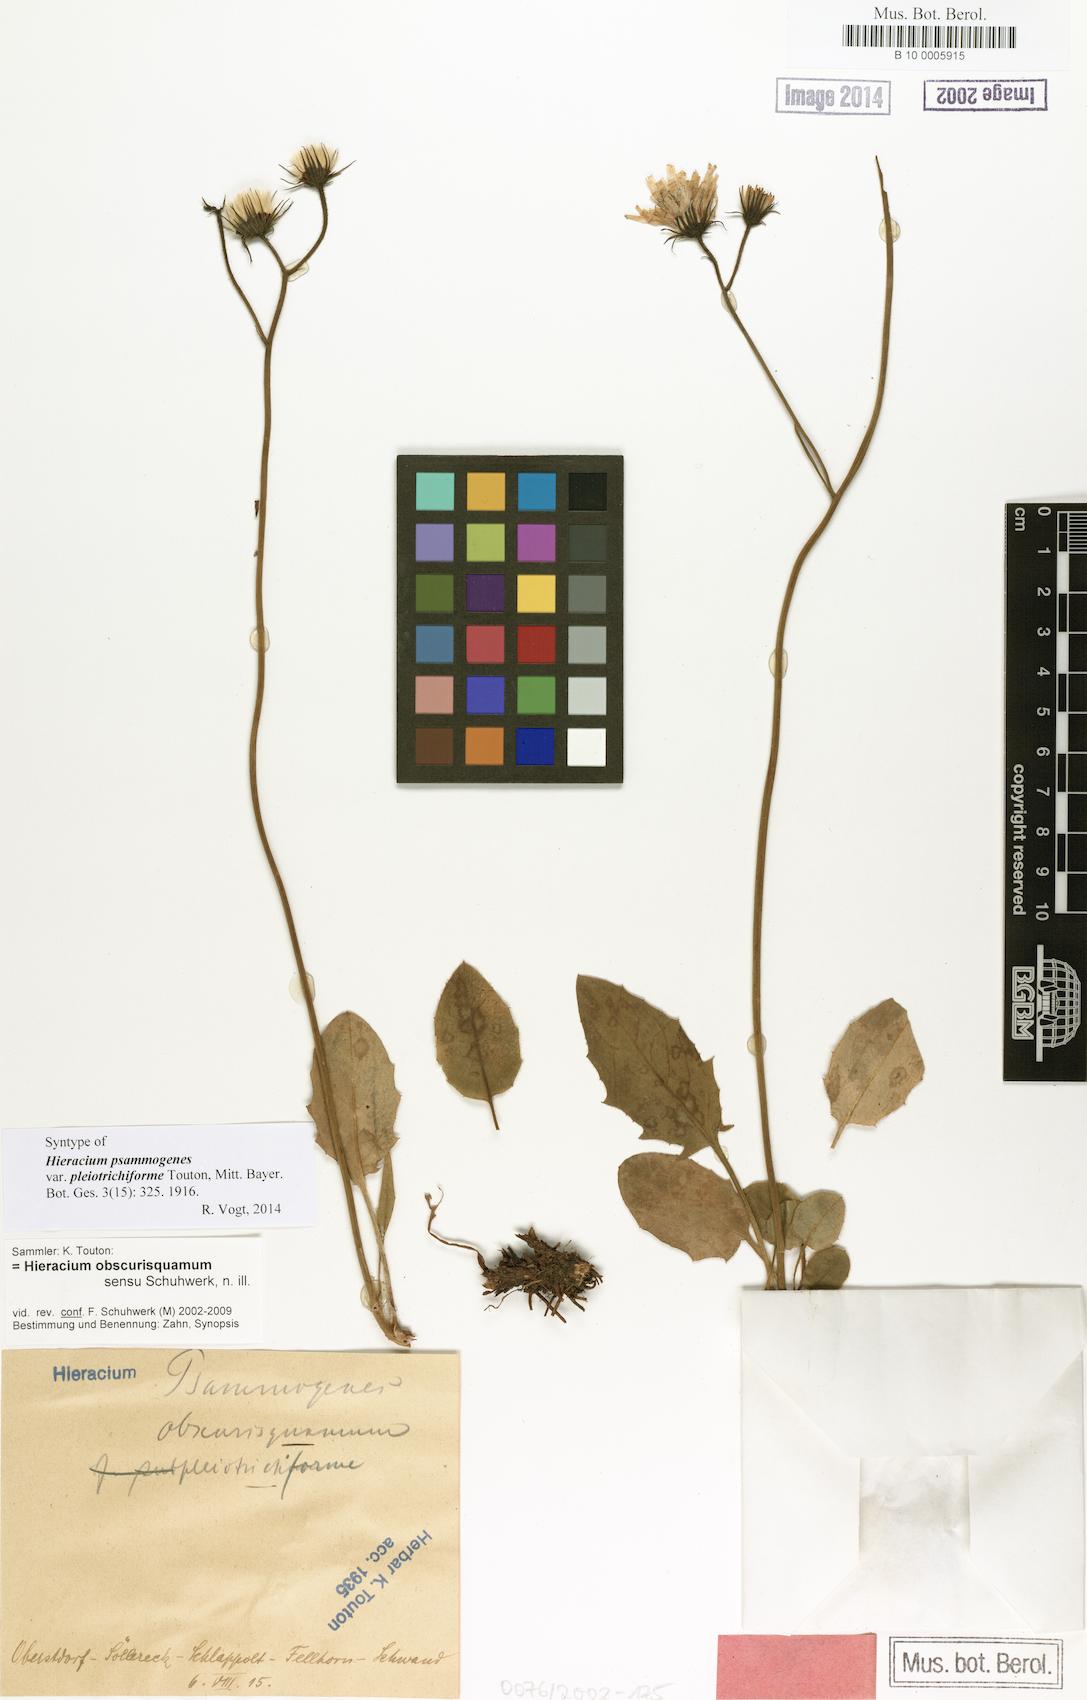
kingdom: Plantae
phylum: Tracheophyta
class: Magnoliopsida
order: Asterales
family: Asteraceae
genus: Hieracium
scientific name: Hieracium psammogenes
